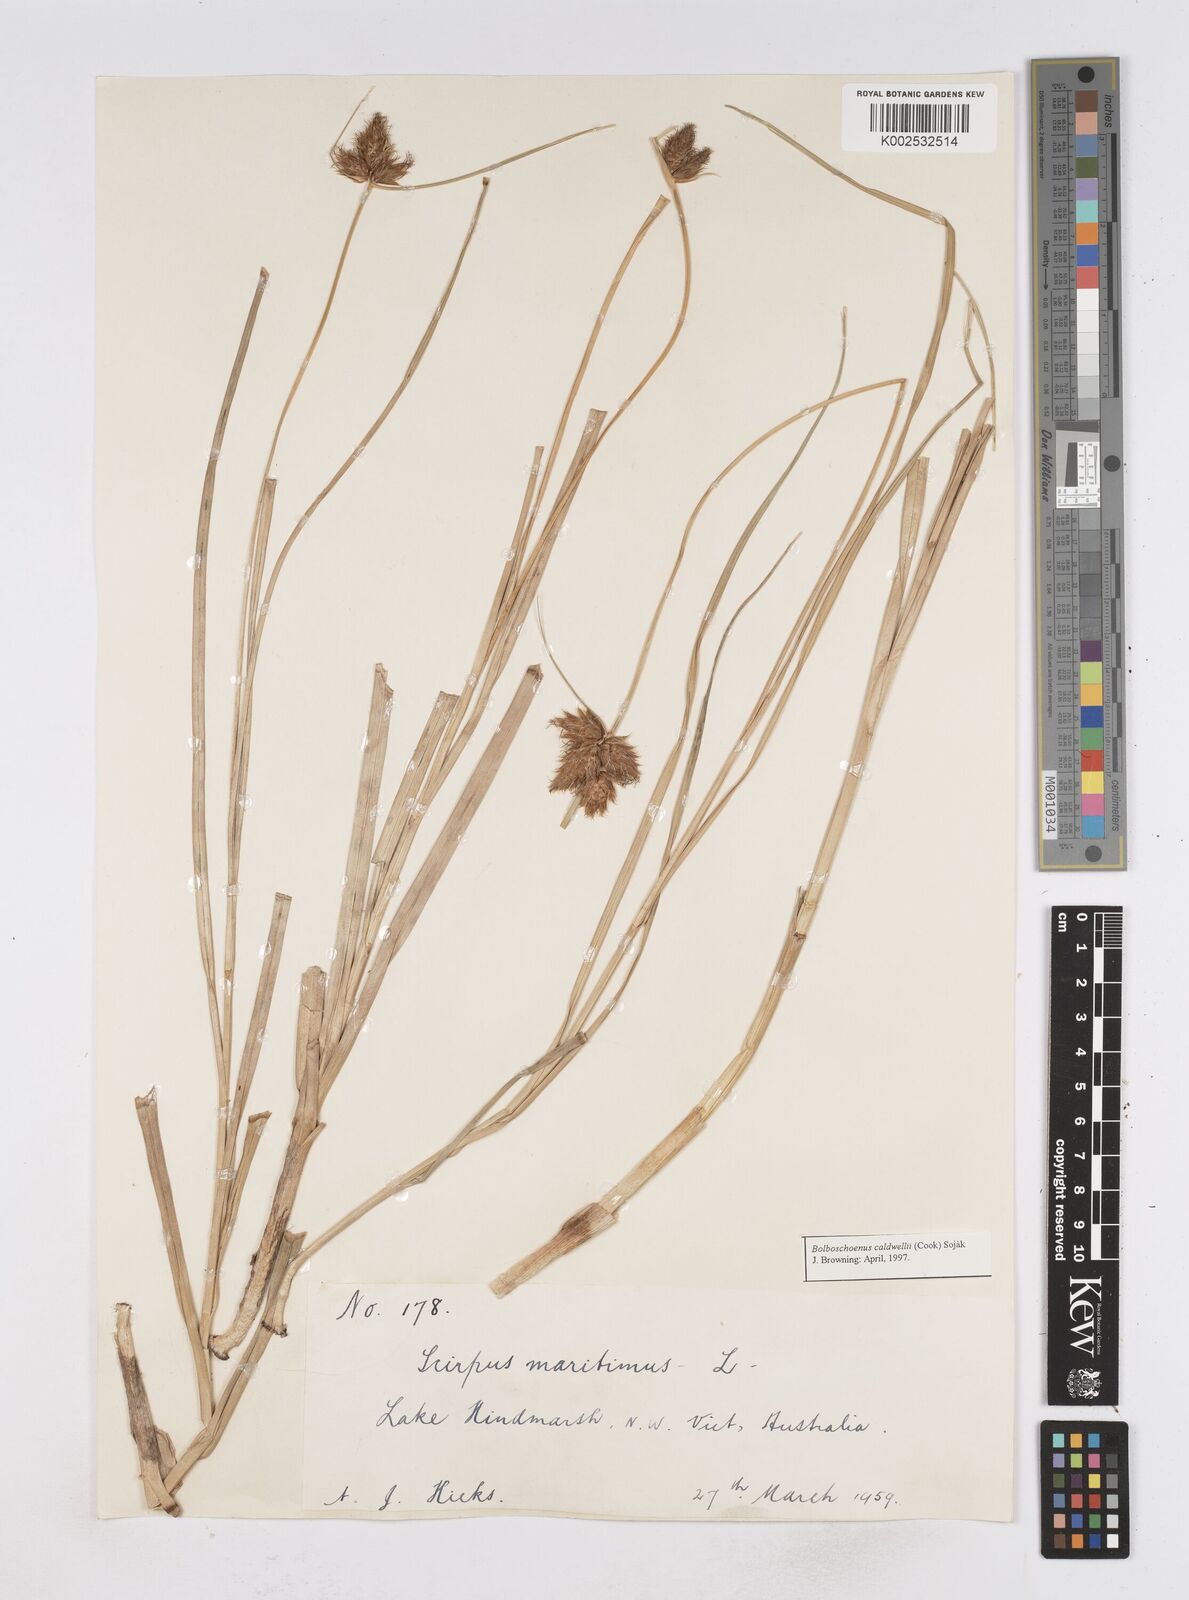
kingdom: Plantae
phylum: Tracheophyta
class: Liliopsida
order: Poales
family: Cyperaceae
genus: Bolboschoenus
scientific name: Bolboschoenus maritimus
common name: Sea club-rush
